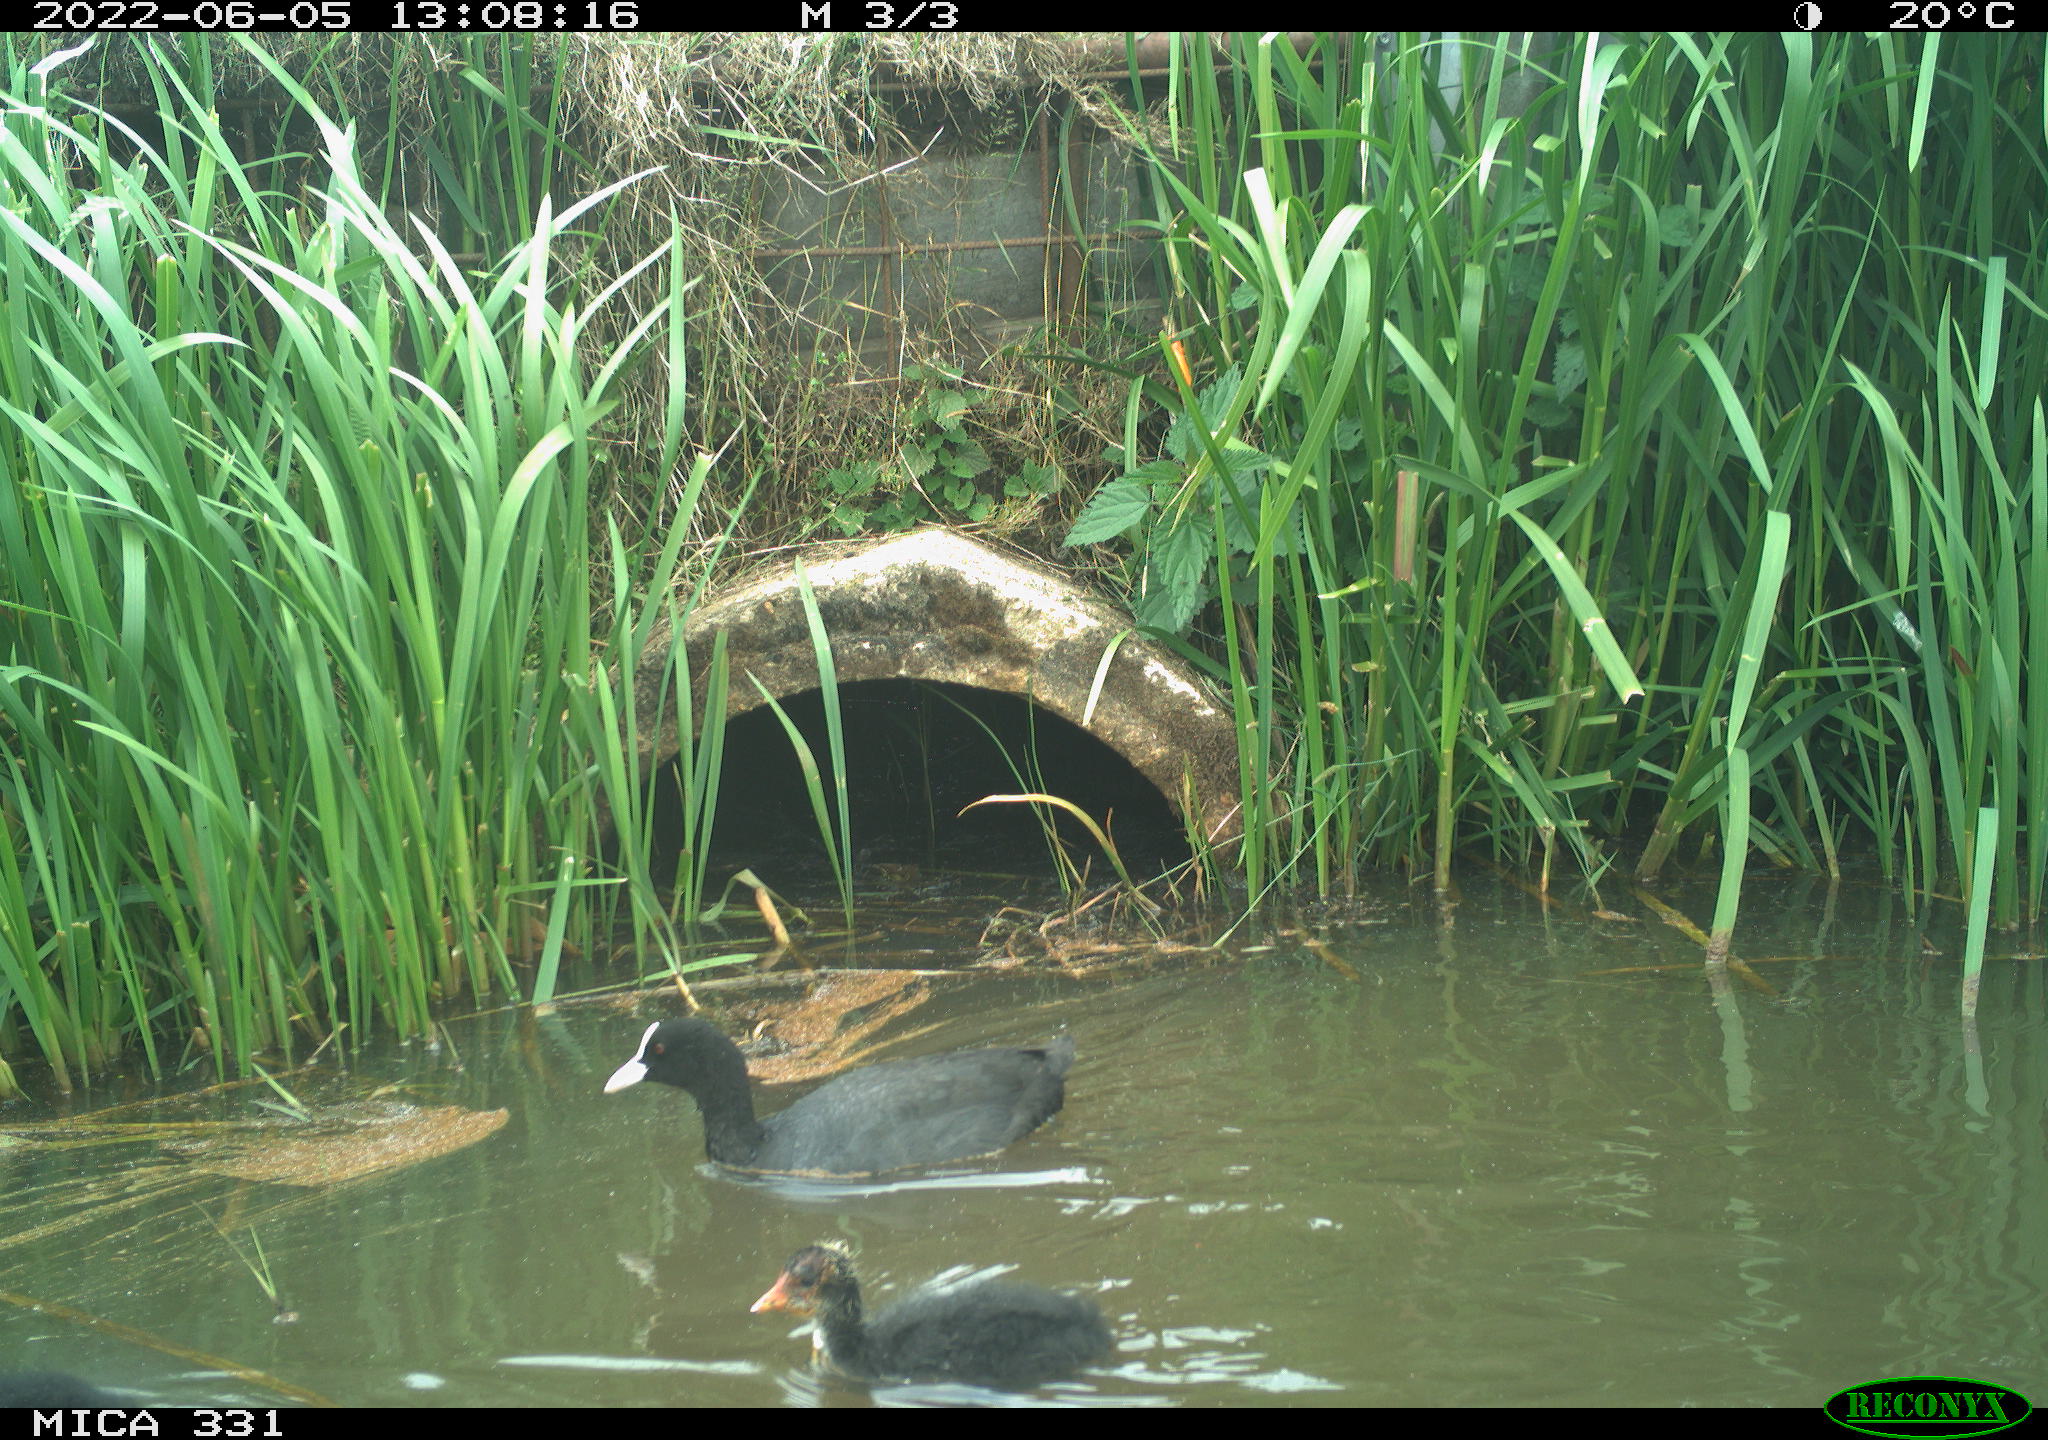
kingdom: Animalia
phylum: Chordata
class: Aves
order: Gruiformes
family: Rallidae
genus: Fulica
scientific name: Fulica atra
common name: Eurasian coot
